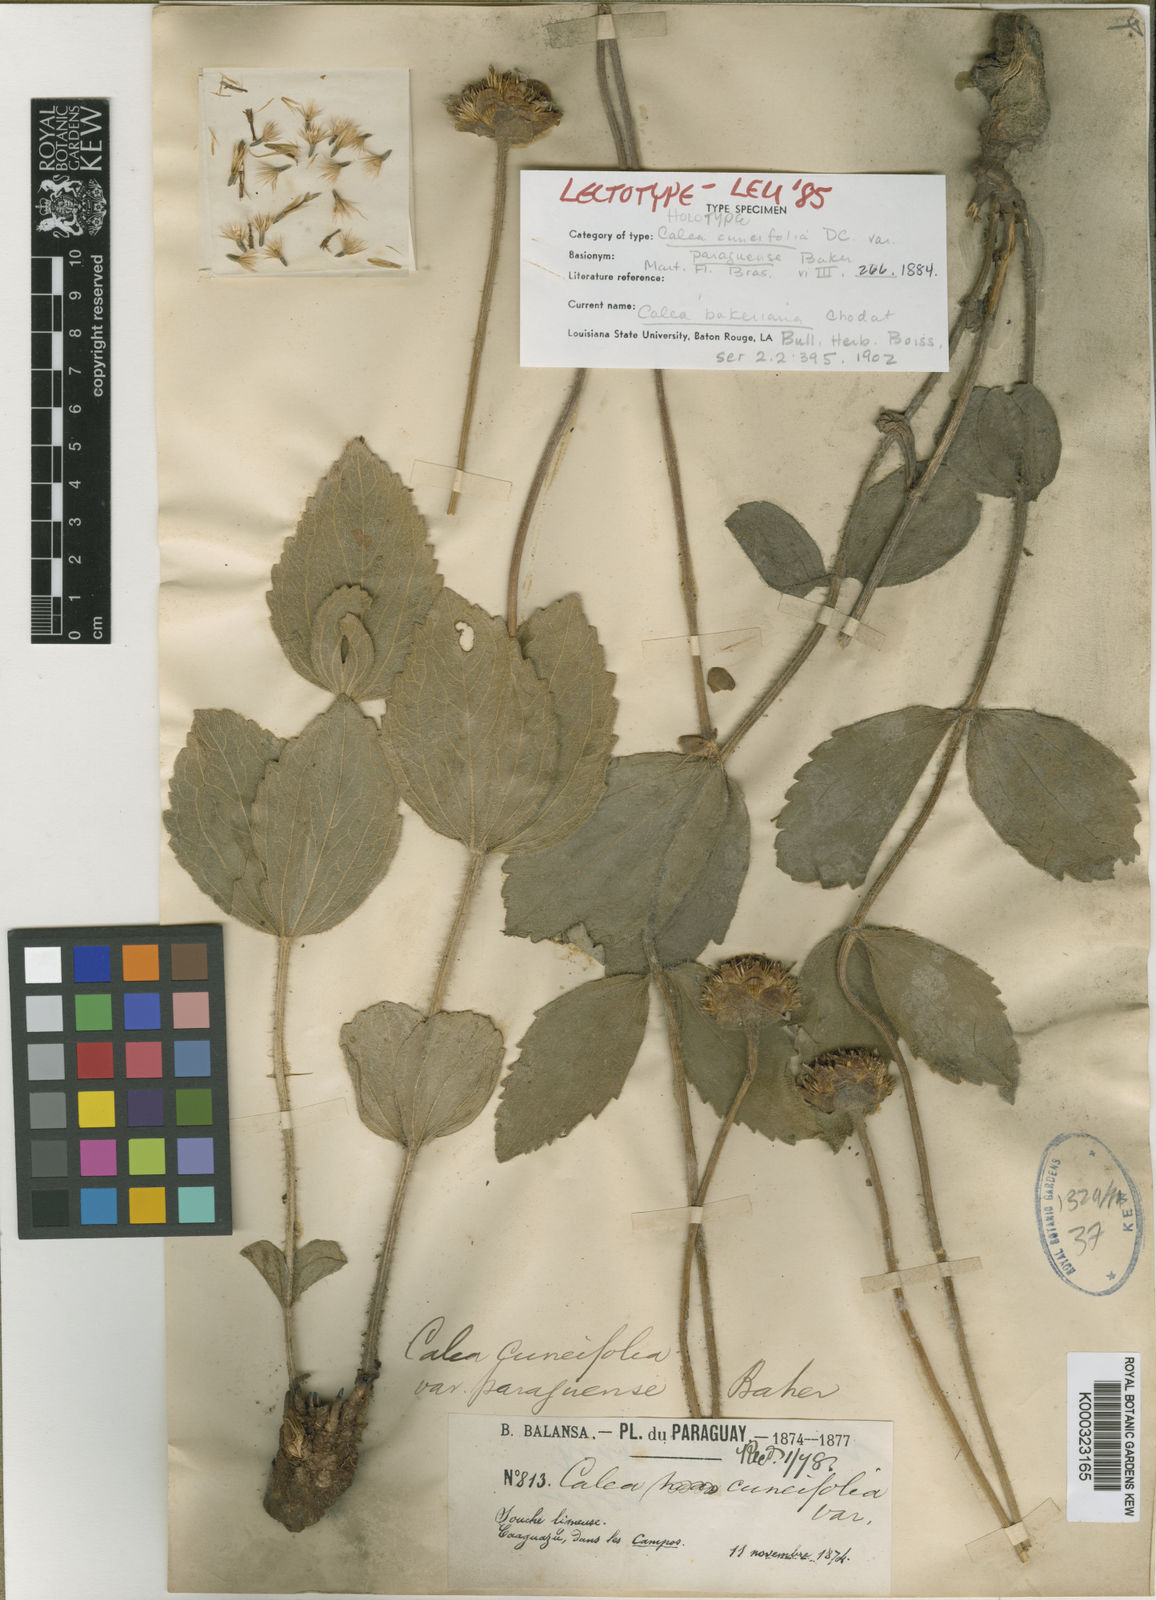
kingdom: Plantae
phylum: Tracheophyta
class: Magnoliopsida
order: Asterales
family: Asteraceae
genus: Calea
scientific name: Calea bakeriana
